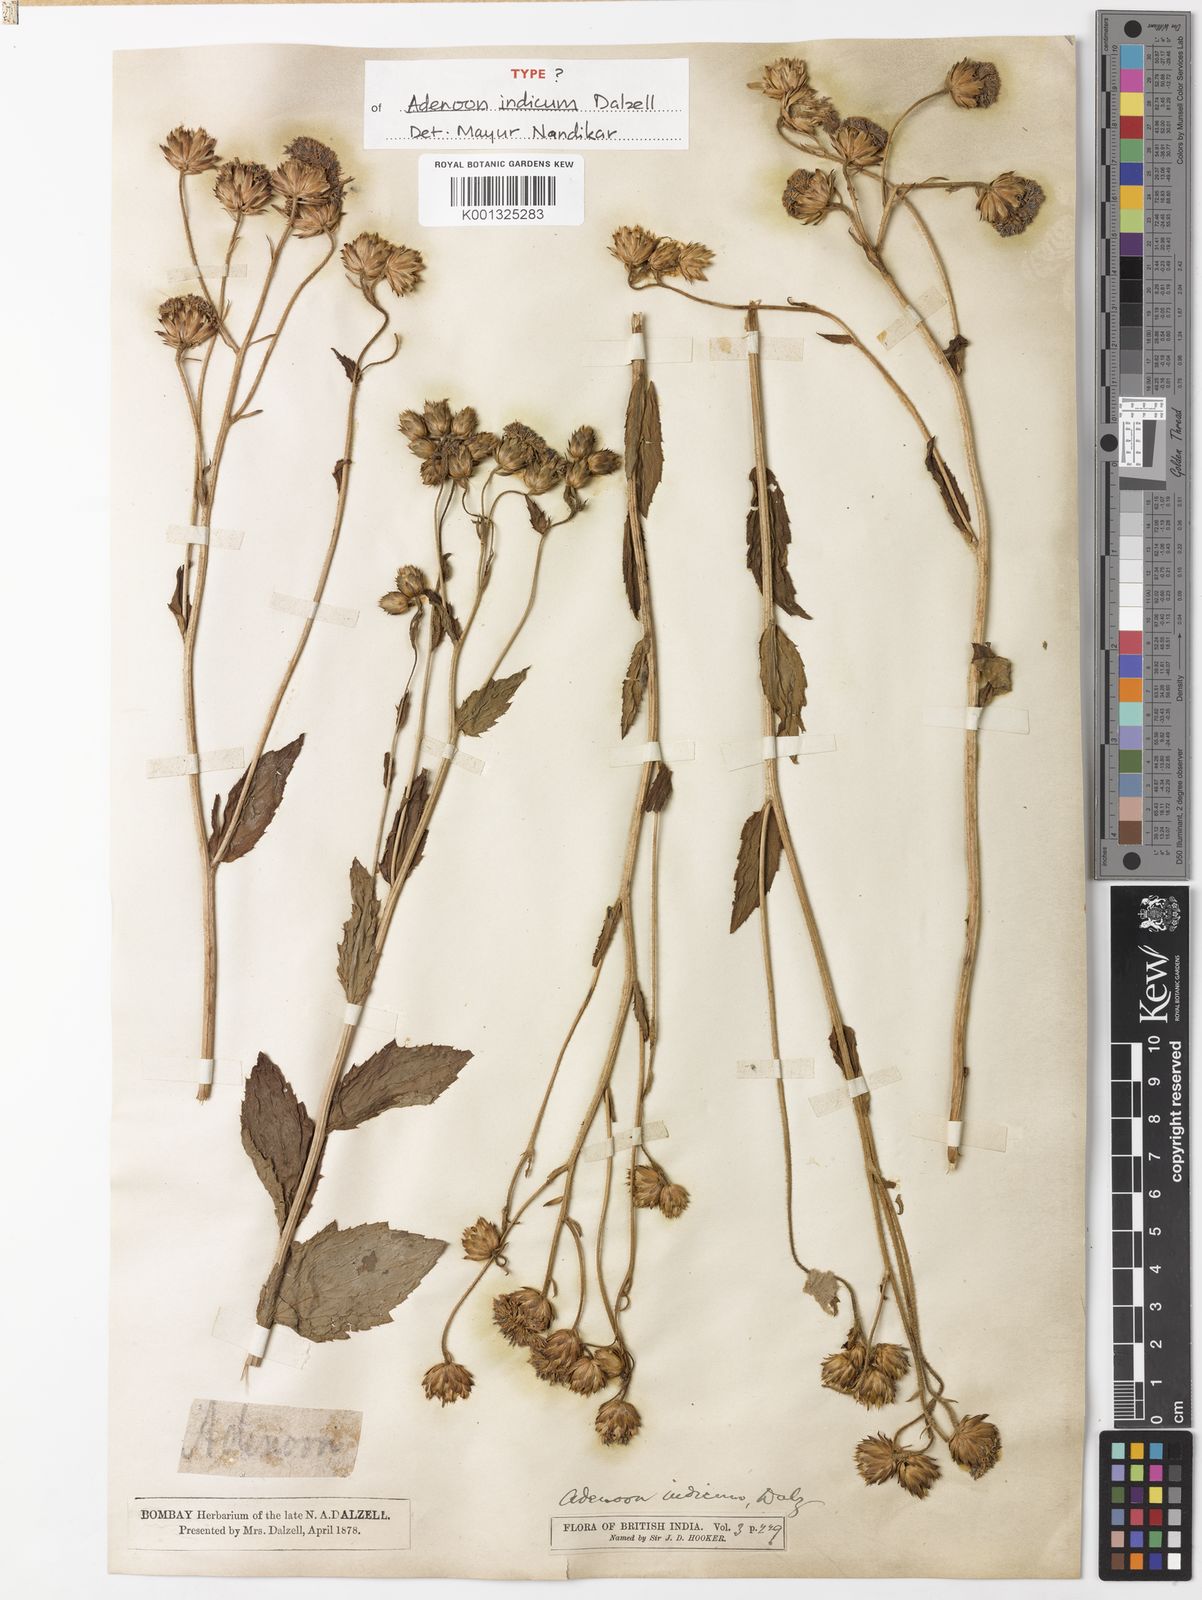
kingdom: Plantae
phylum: Tracheophyta
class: Magnoliopsida
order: Asterales
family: Asteraceae
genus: Adenoon
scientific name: Adenoon indicum
